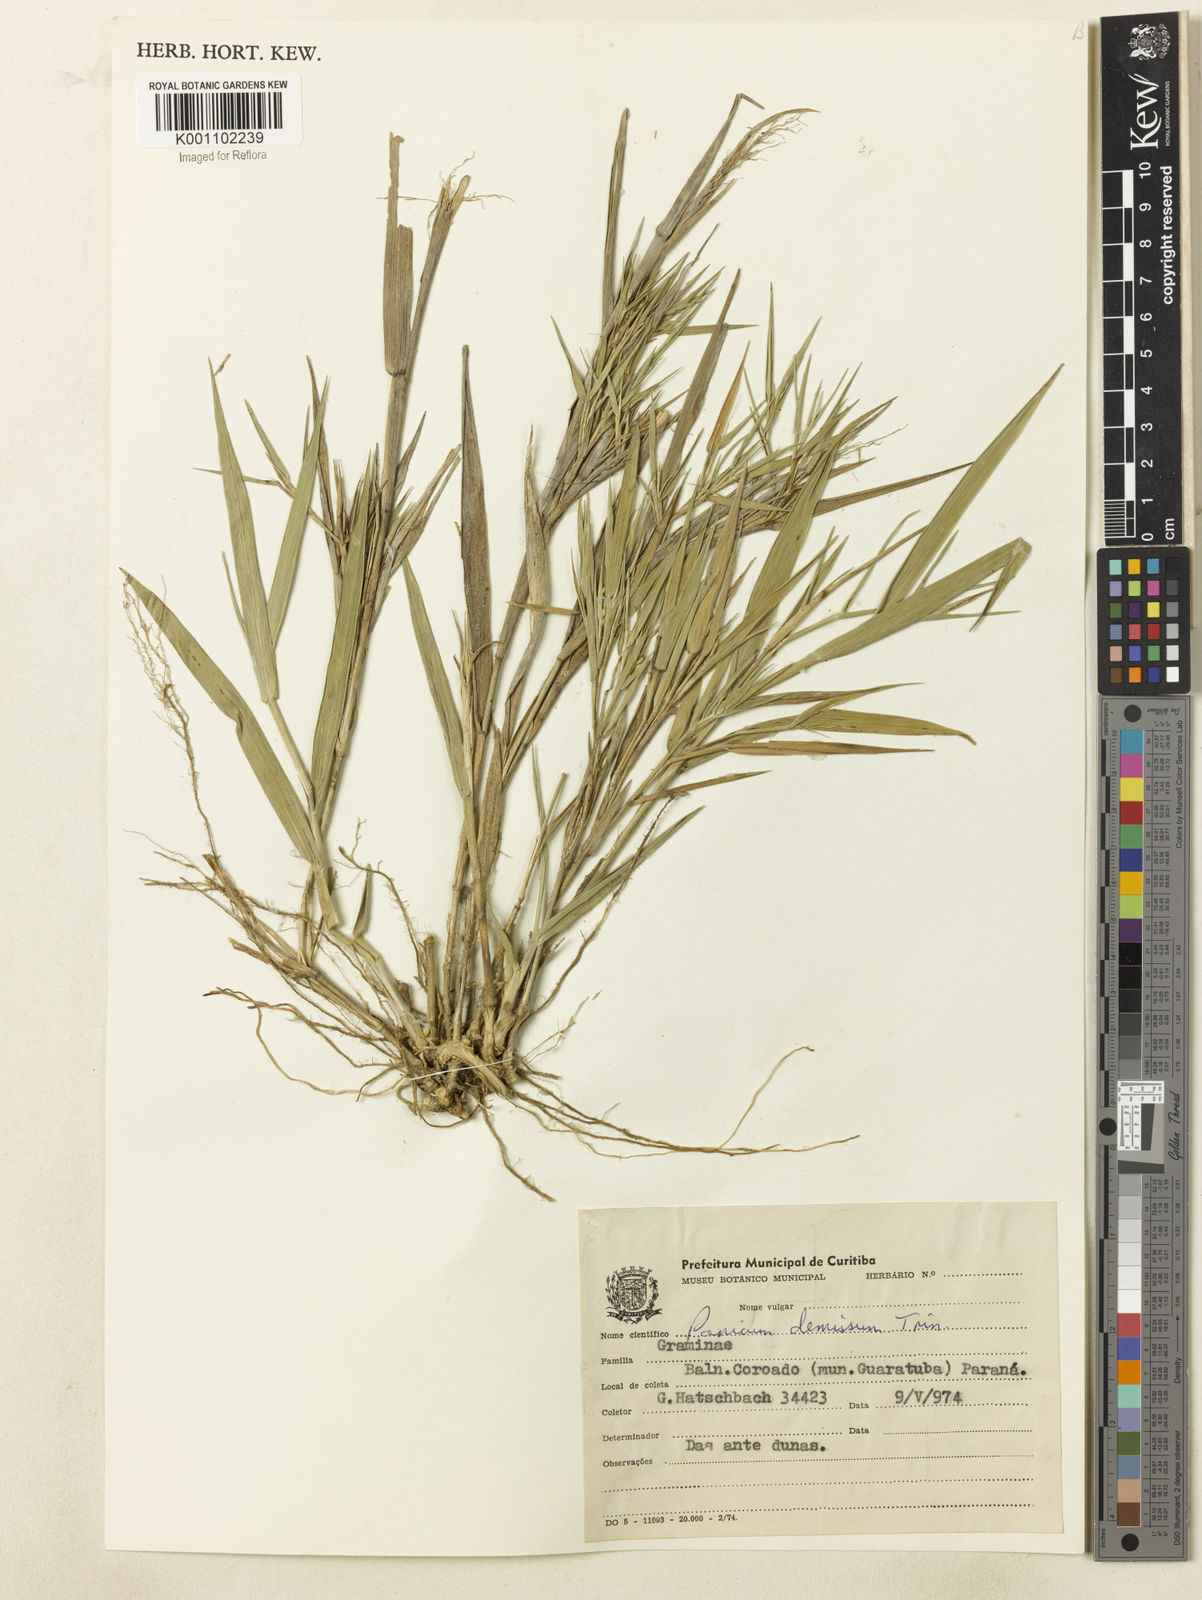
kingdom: Plantae
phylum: Tracheophyta
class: Liliopsida
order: Poales
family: Poaceae
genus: Dichanthelium
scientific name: Dichanthelium sabulorum
